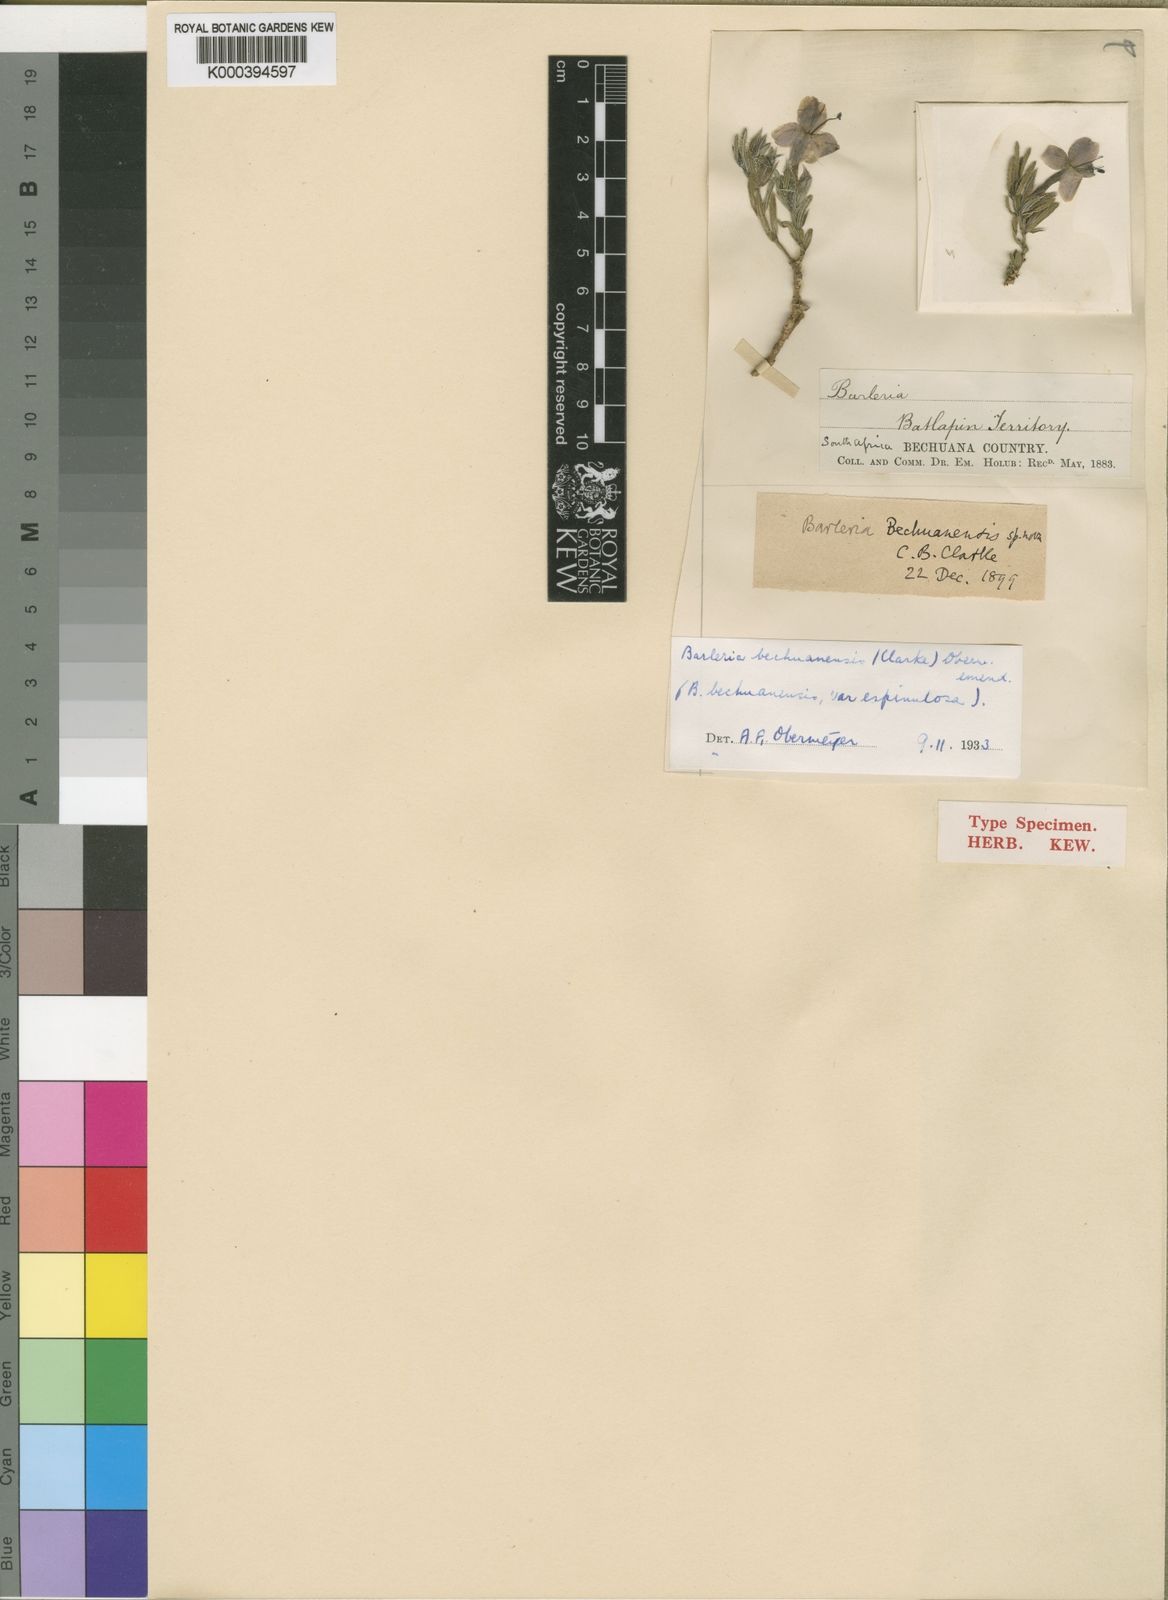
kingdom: Plantae
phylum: Tracheophyta
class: Magnoliopsida
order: Lamiales
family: Acanthaceae
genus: Barleria
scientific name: Barleria bechuanensis
